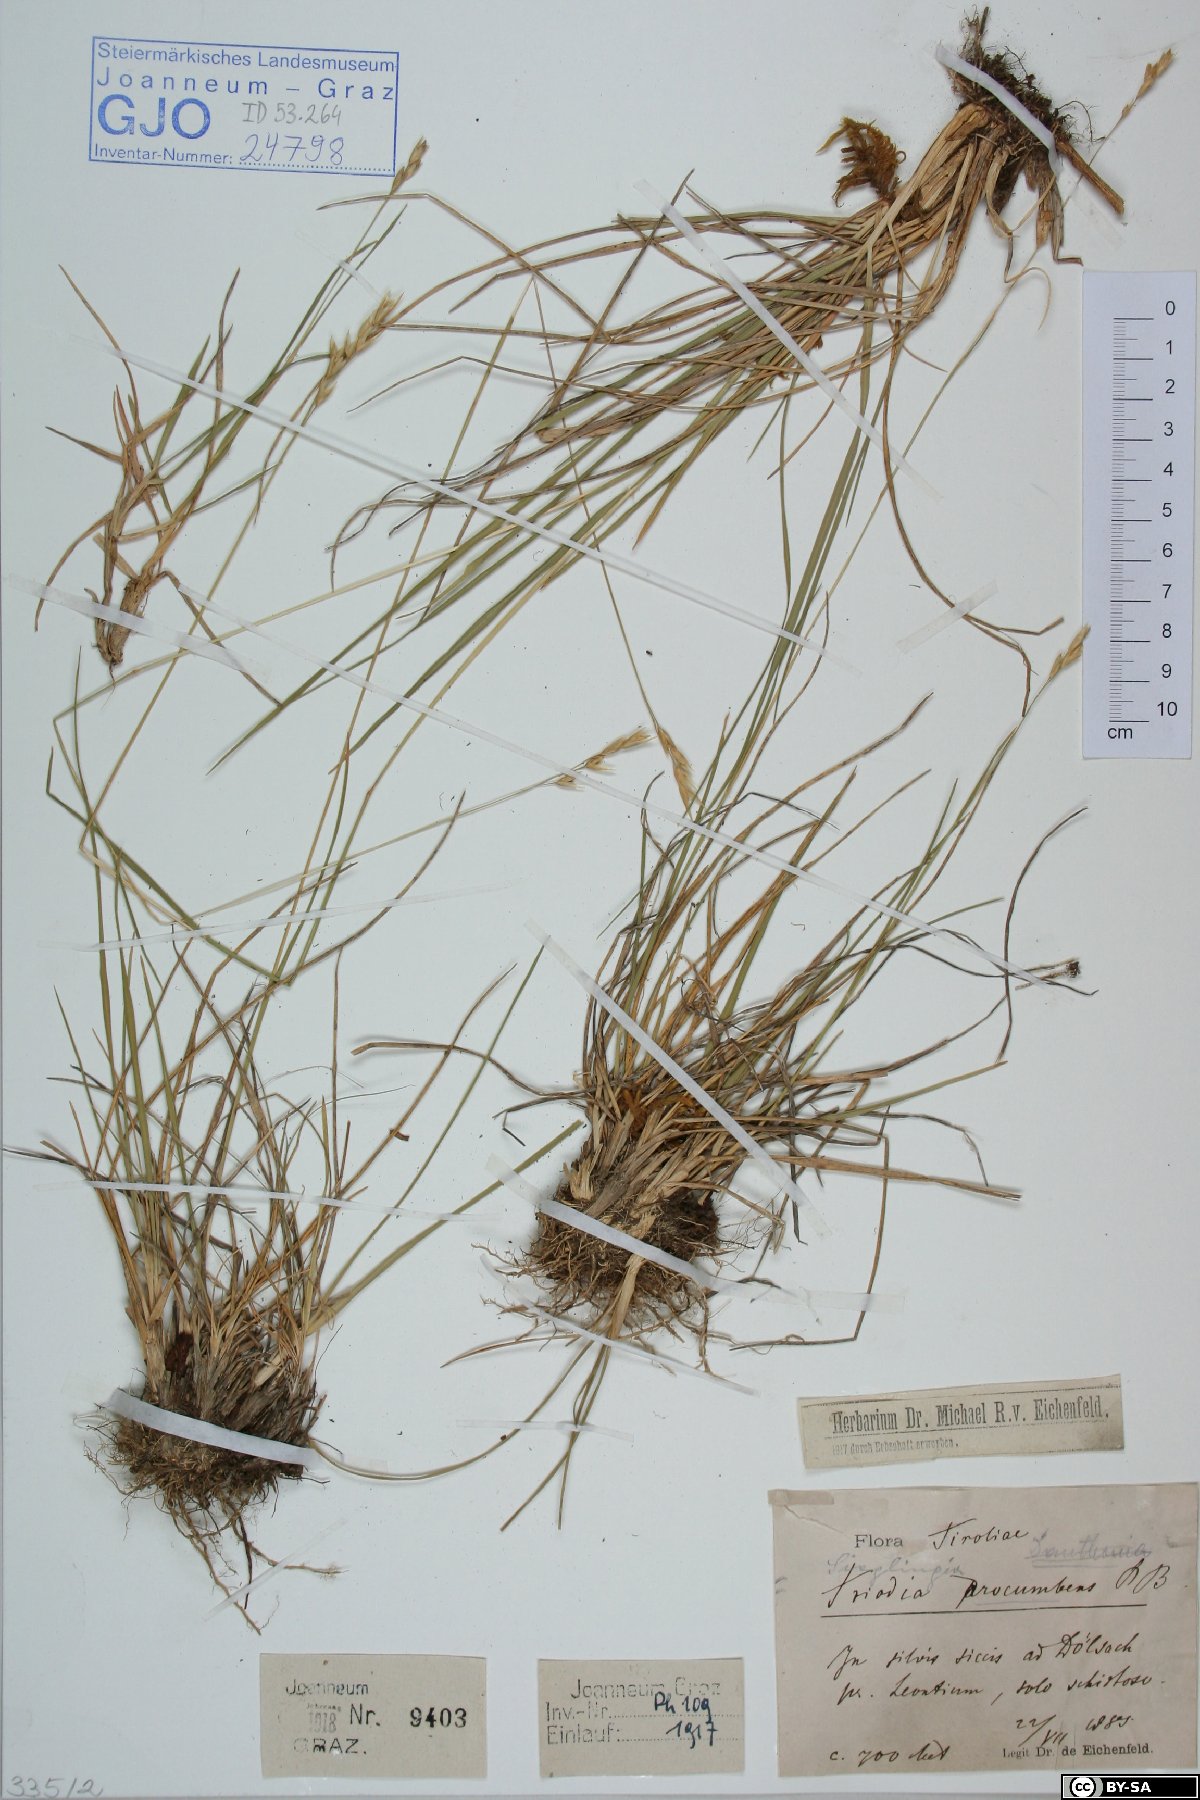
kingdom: Plantae
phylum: Tracheophyta
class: Liliopsida
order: Poales
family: Poaceae
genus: Danthonia
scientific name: Danthonia decumbens
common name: Common heathgrass
